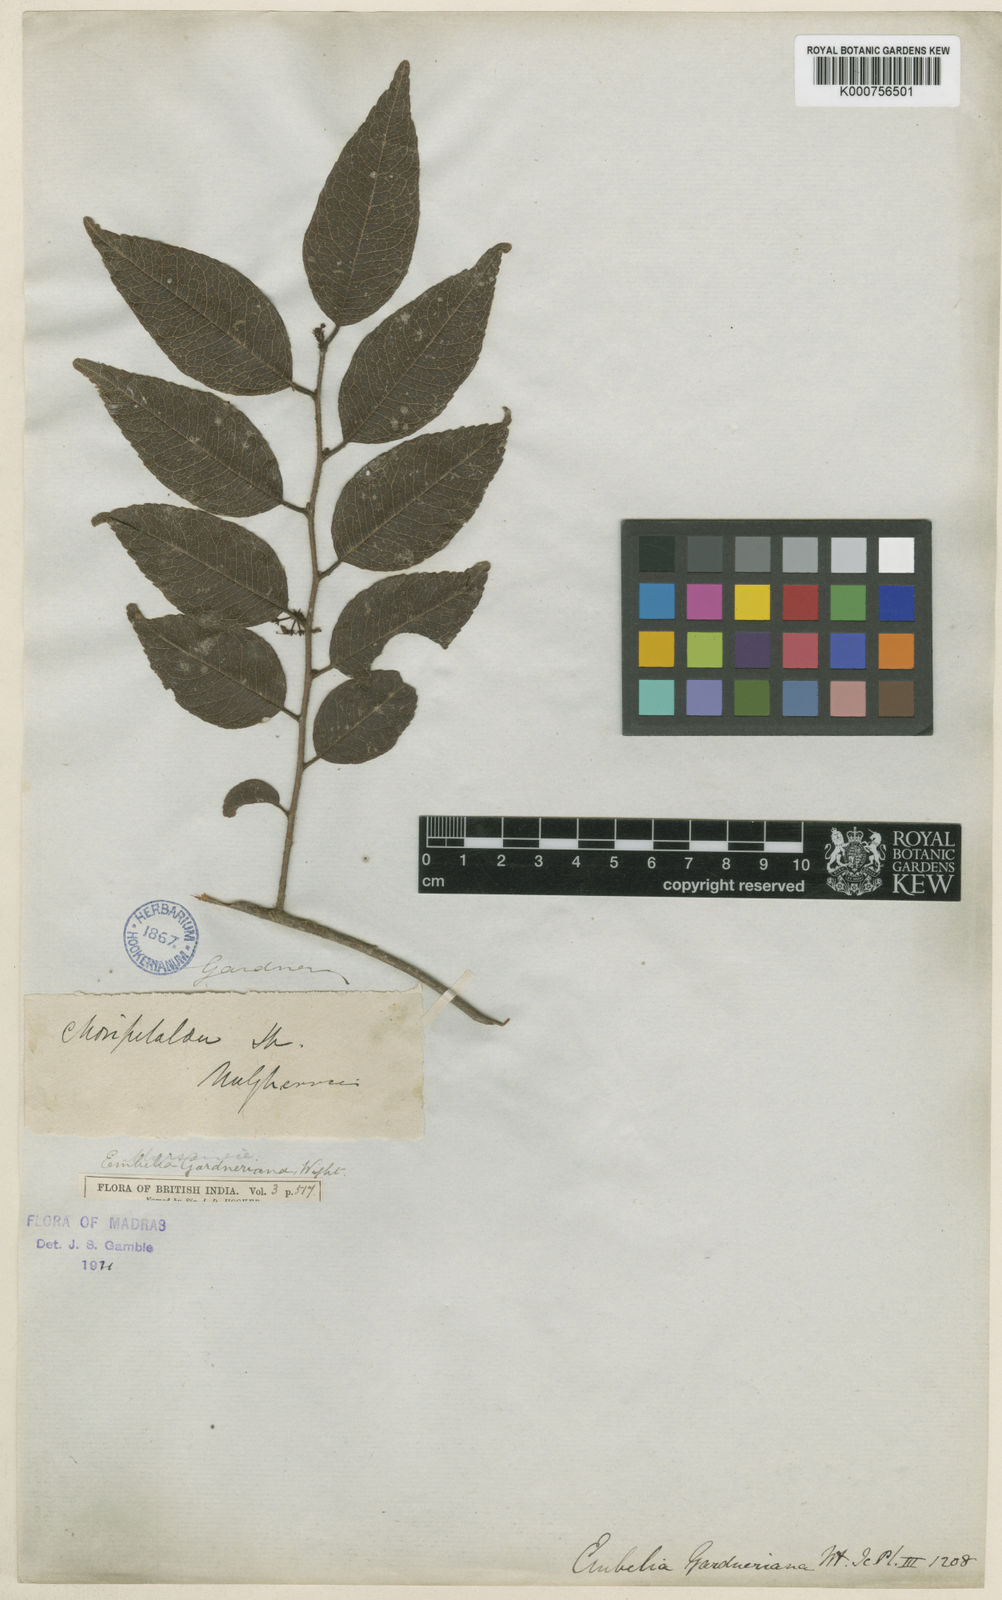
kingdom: Plantae
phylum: Tracheophyta
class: Magnoliopsida
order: Ericales
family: Primulaceae
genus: Embelia
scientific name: Embelia gardneriana
